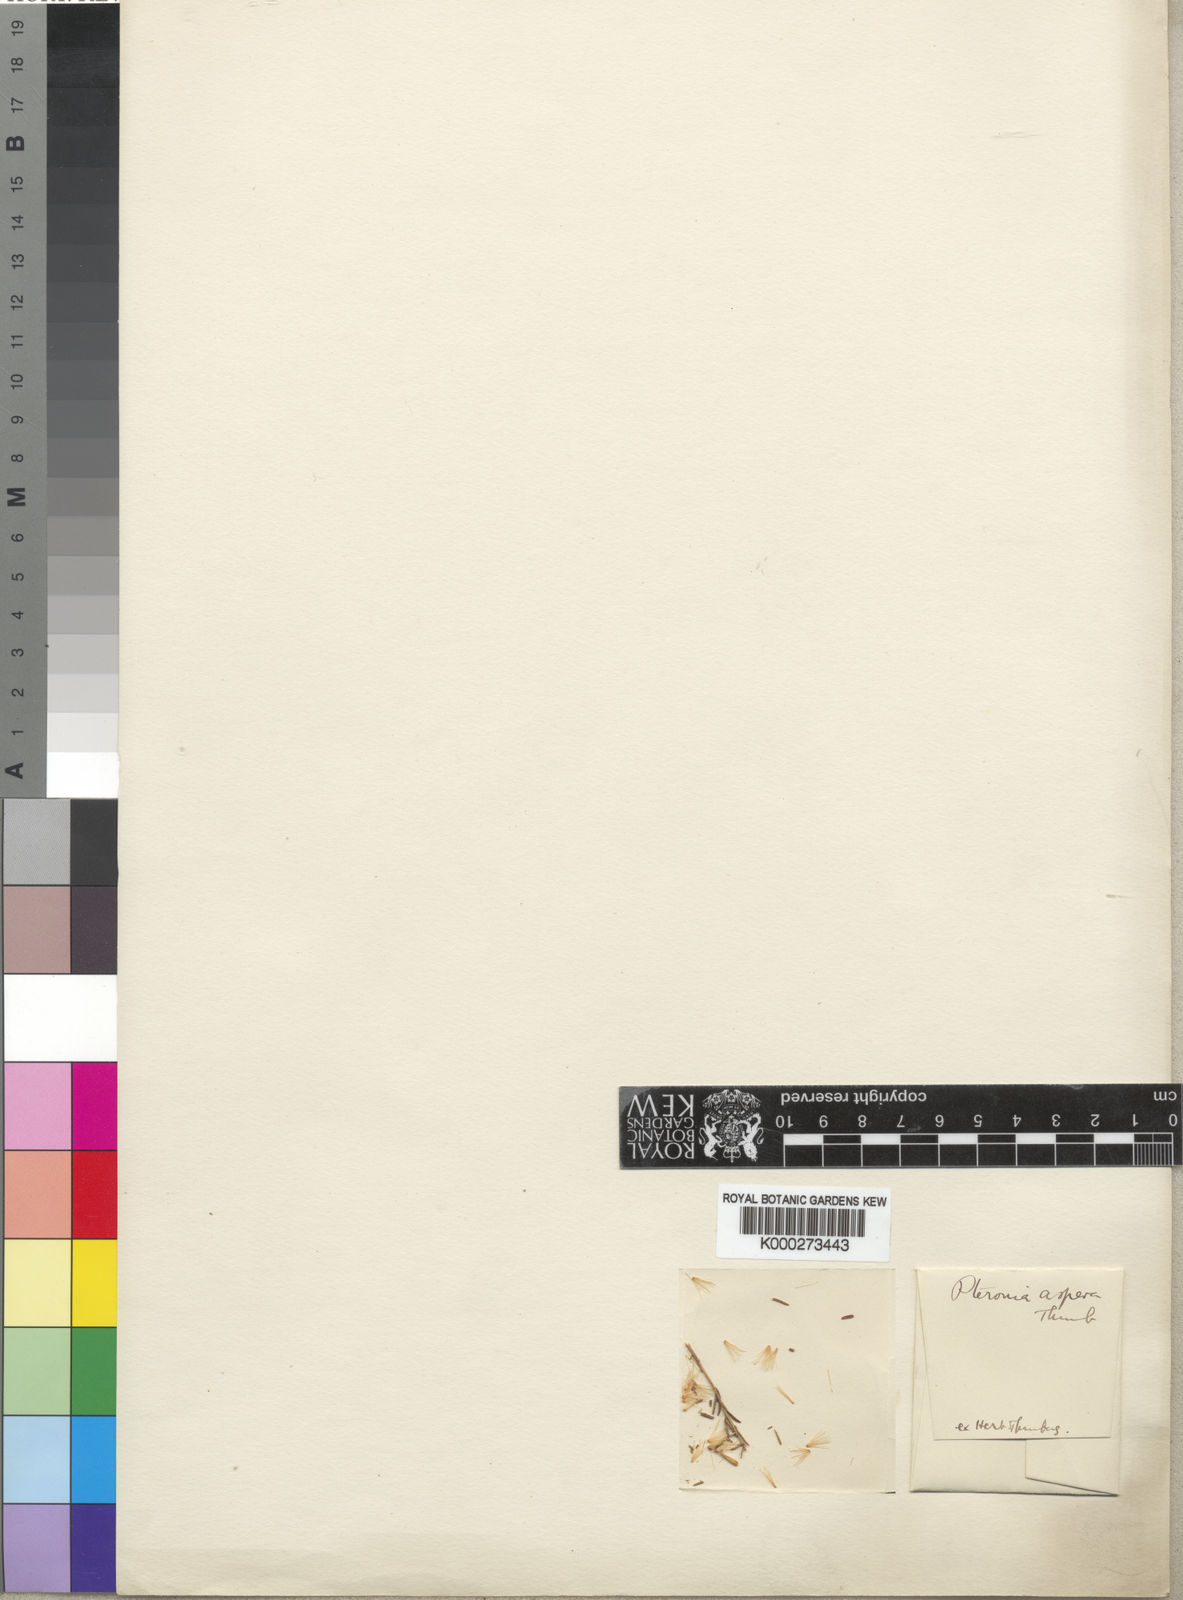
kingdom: Plantae
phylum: Tracheophyta
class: Magnoliopsida
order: Asterales
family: Asteraceae
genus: Pteronia
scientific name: Pteronia camphorata
